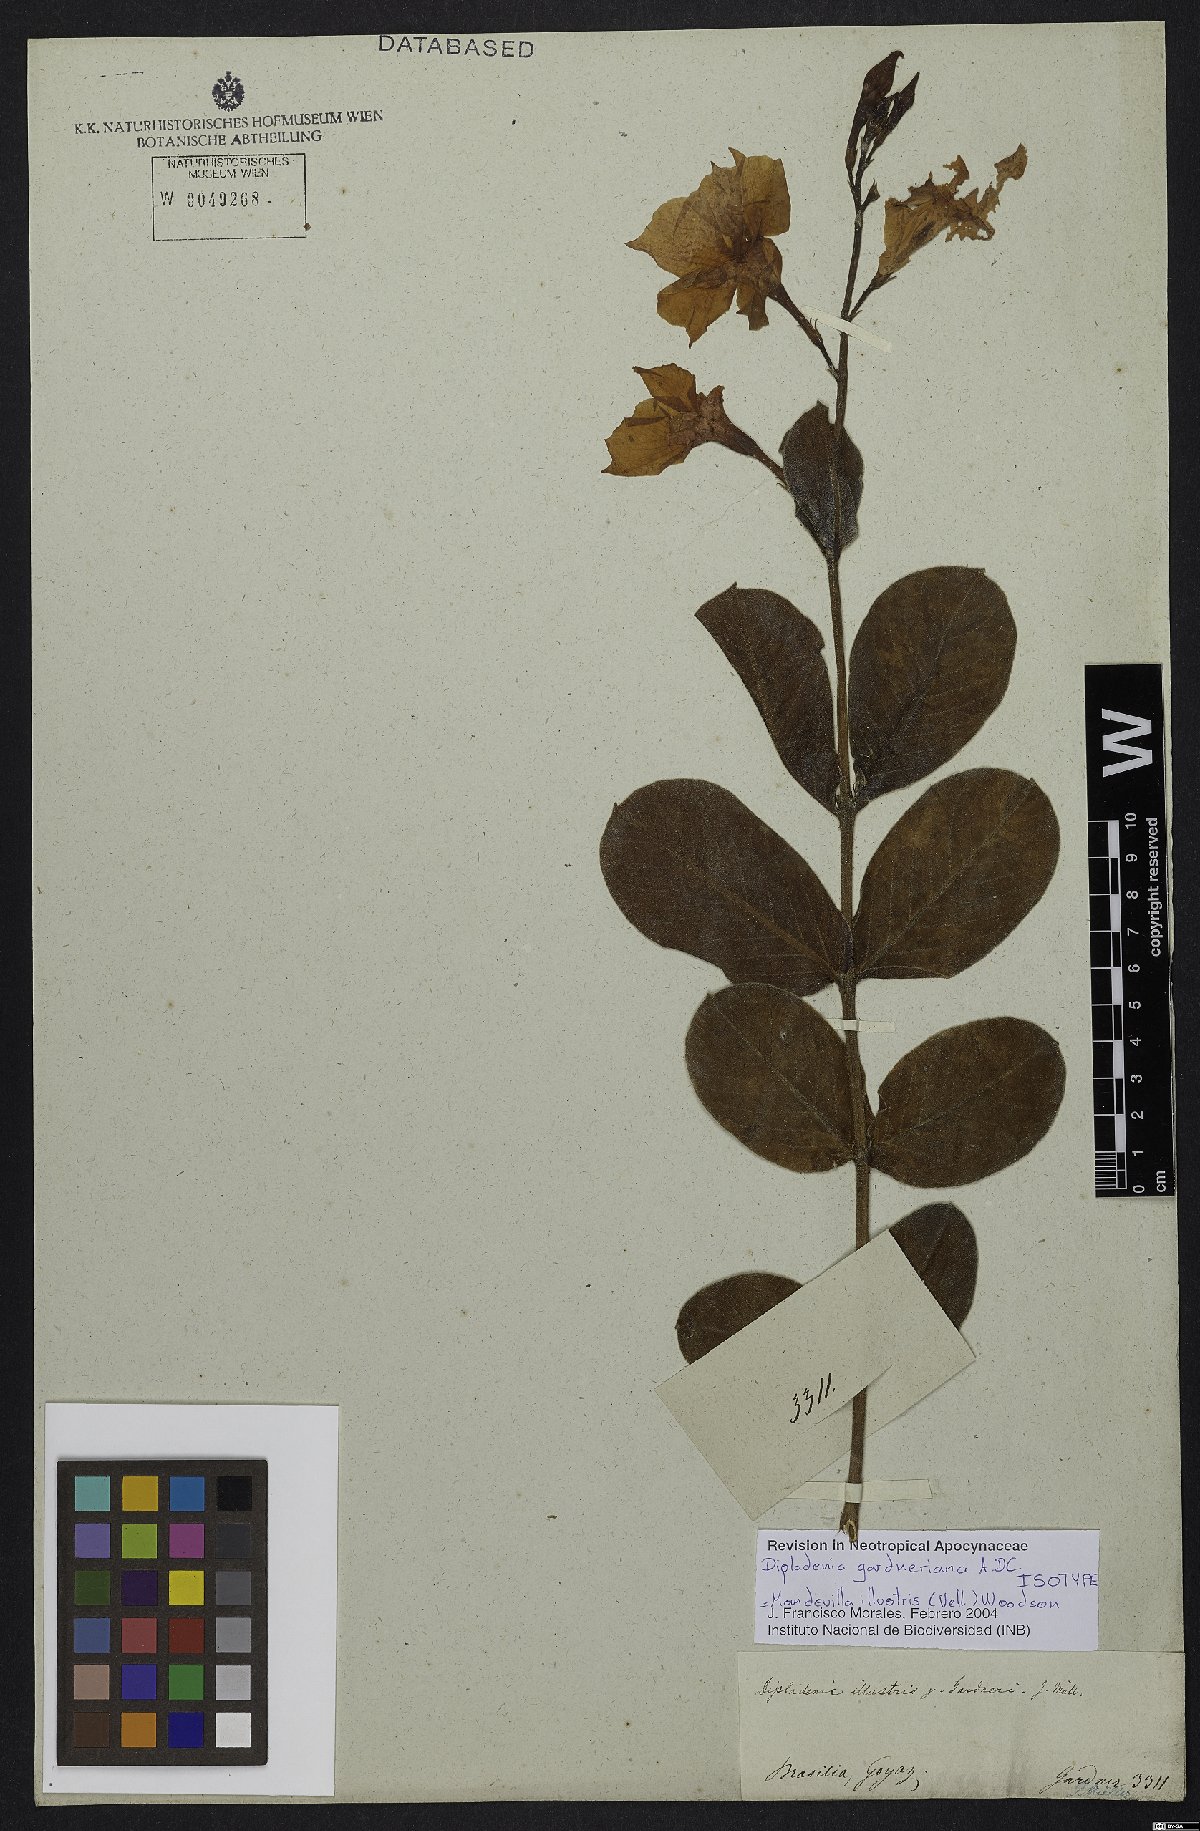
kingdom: Plantae
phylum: Tracheophyta
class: Magnoliopsida
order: Gentianales
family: Apocynaceae
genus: Mandevilla
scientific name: Mandevilla illustris
